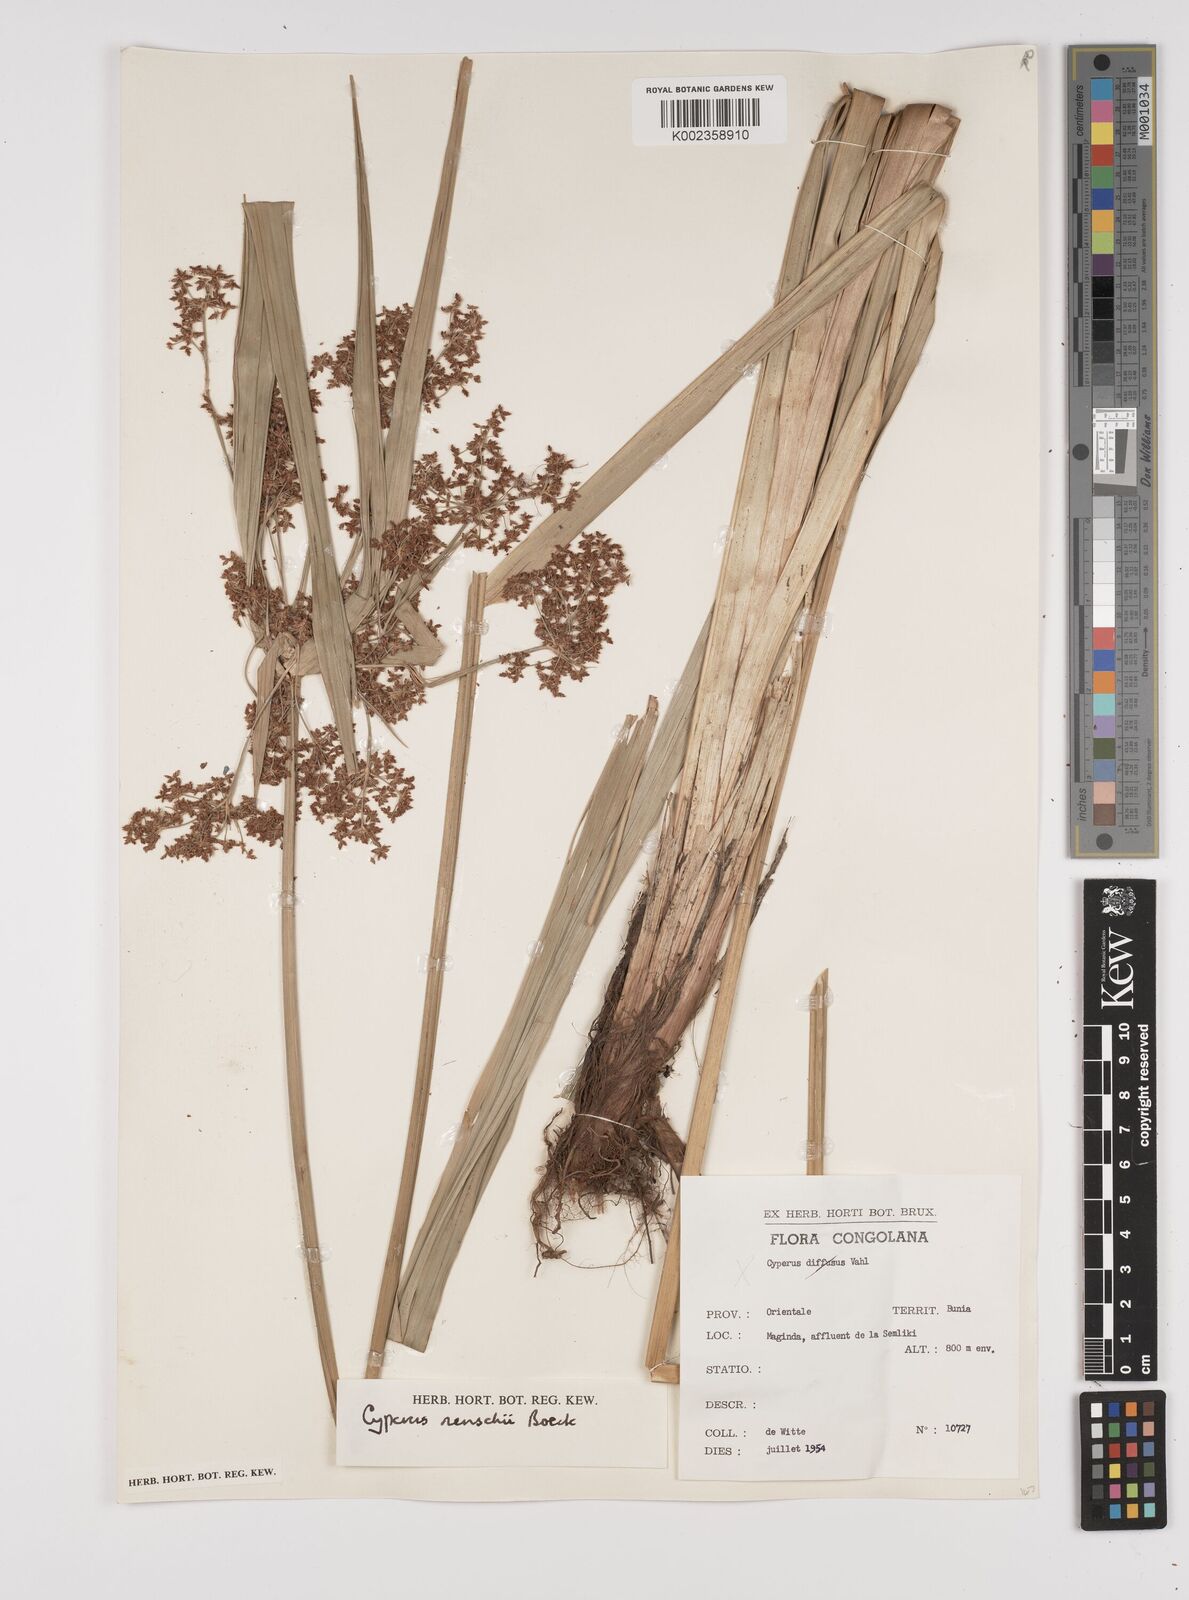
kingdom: Plantae
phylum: Tracheophyta
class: Liliopsida
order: Poales
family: Cyperaceae
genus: Cyperus
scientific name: Cyperus renschii
